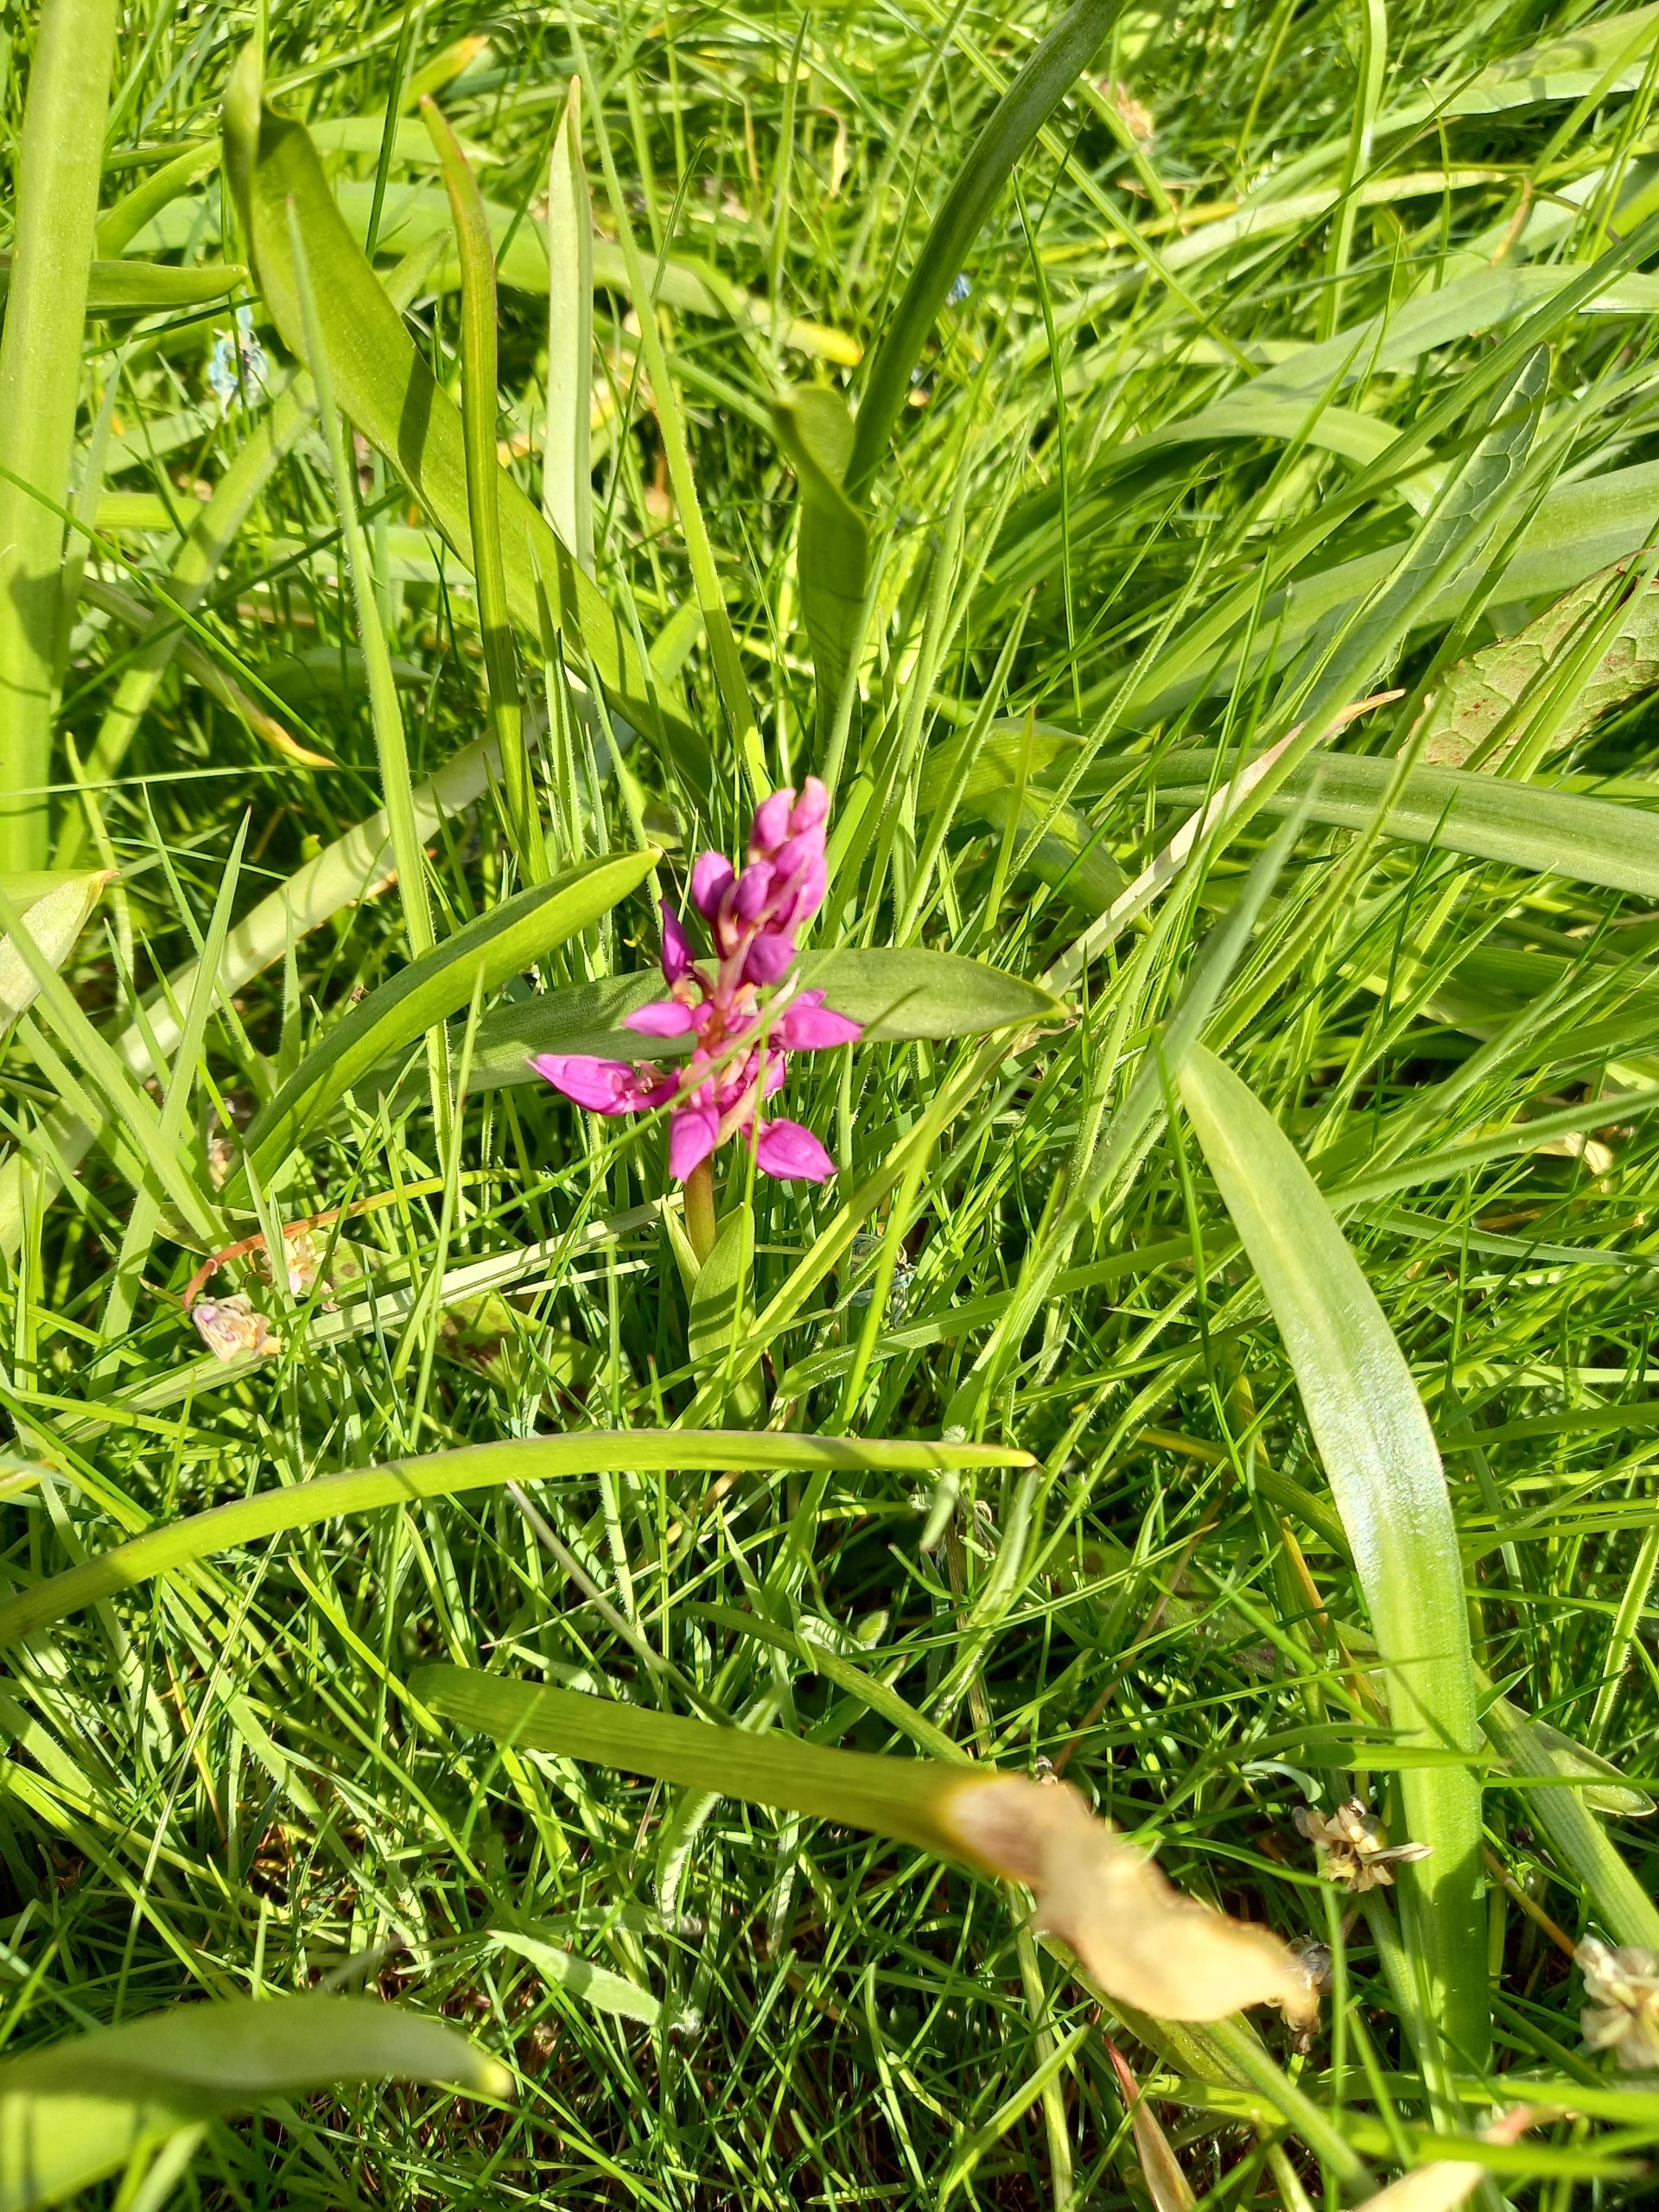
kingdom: Plantae
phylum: Tracheophyta
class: Liliopsida
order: Asparagales
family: Orchidaceae
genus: Orchis
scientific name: Orchis mascula
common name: Tyndakset gøgeurt
